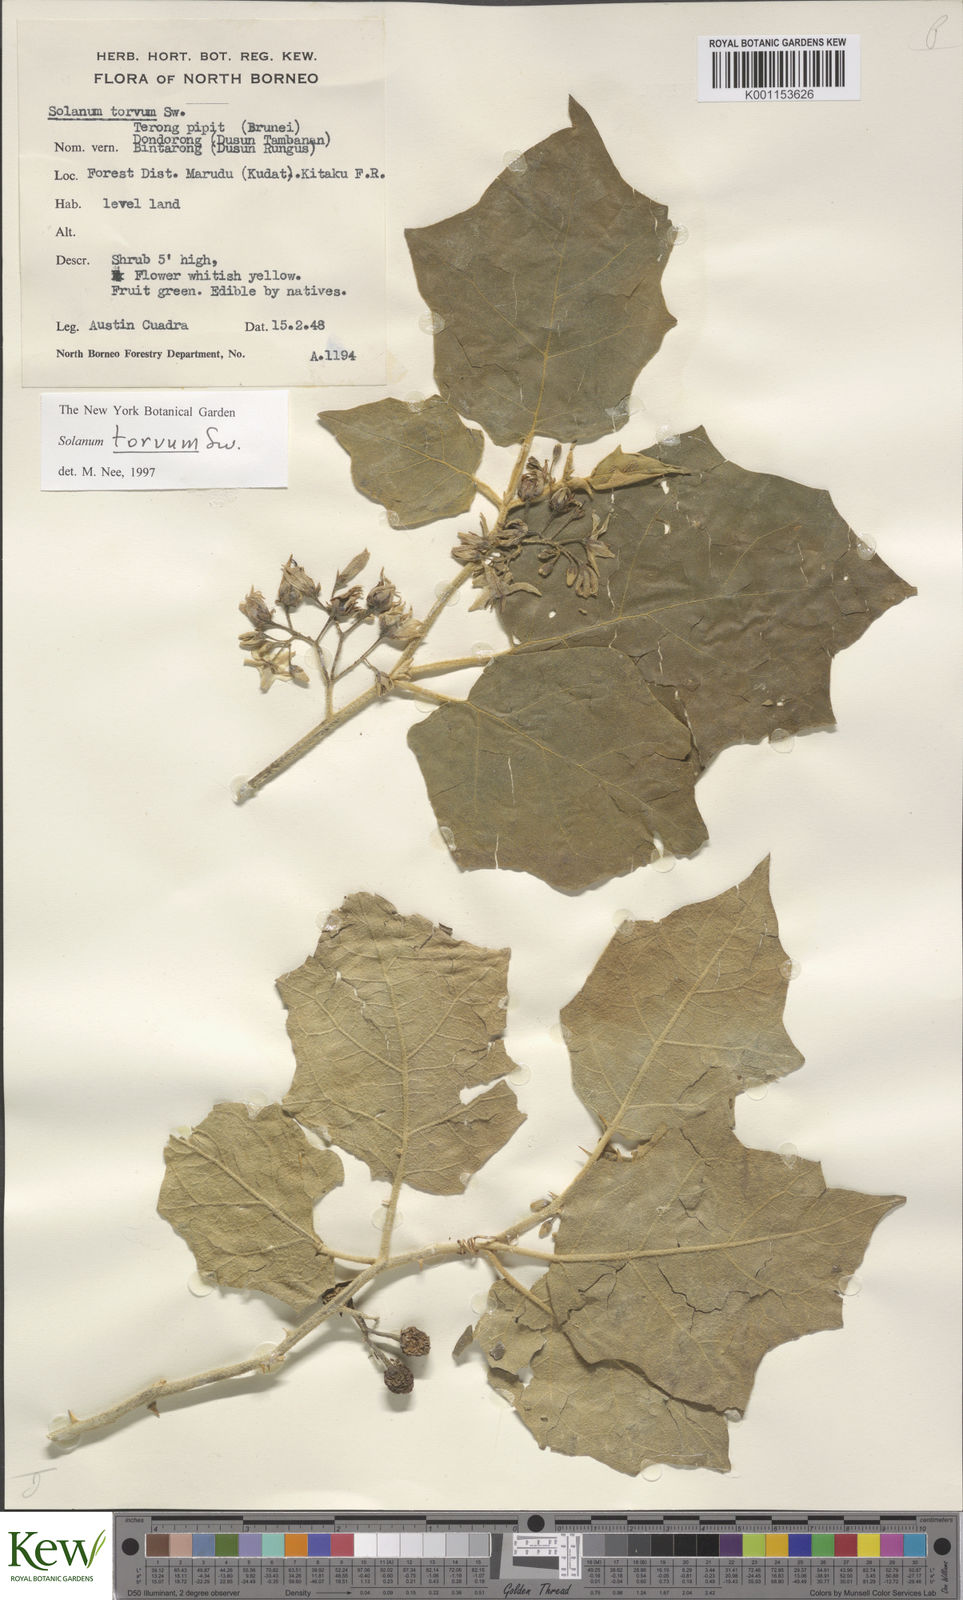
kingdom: Plantae
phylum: Tracheophyta
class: Magnoliopsida
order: Solanales
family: Solanaceae
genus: Solanum
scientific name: Solanum torvum
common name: Turkey berry
